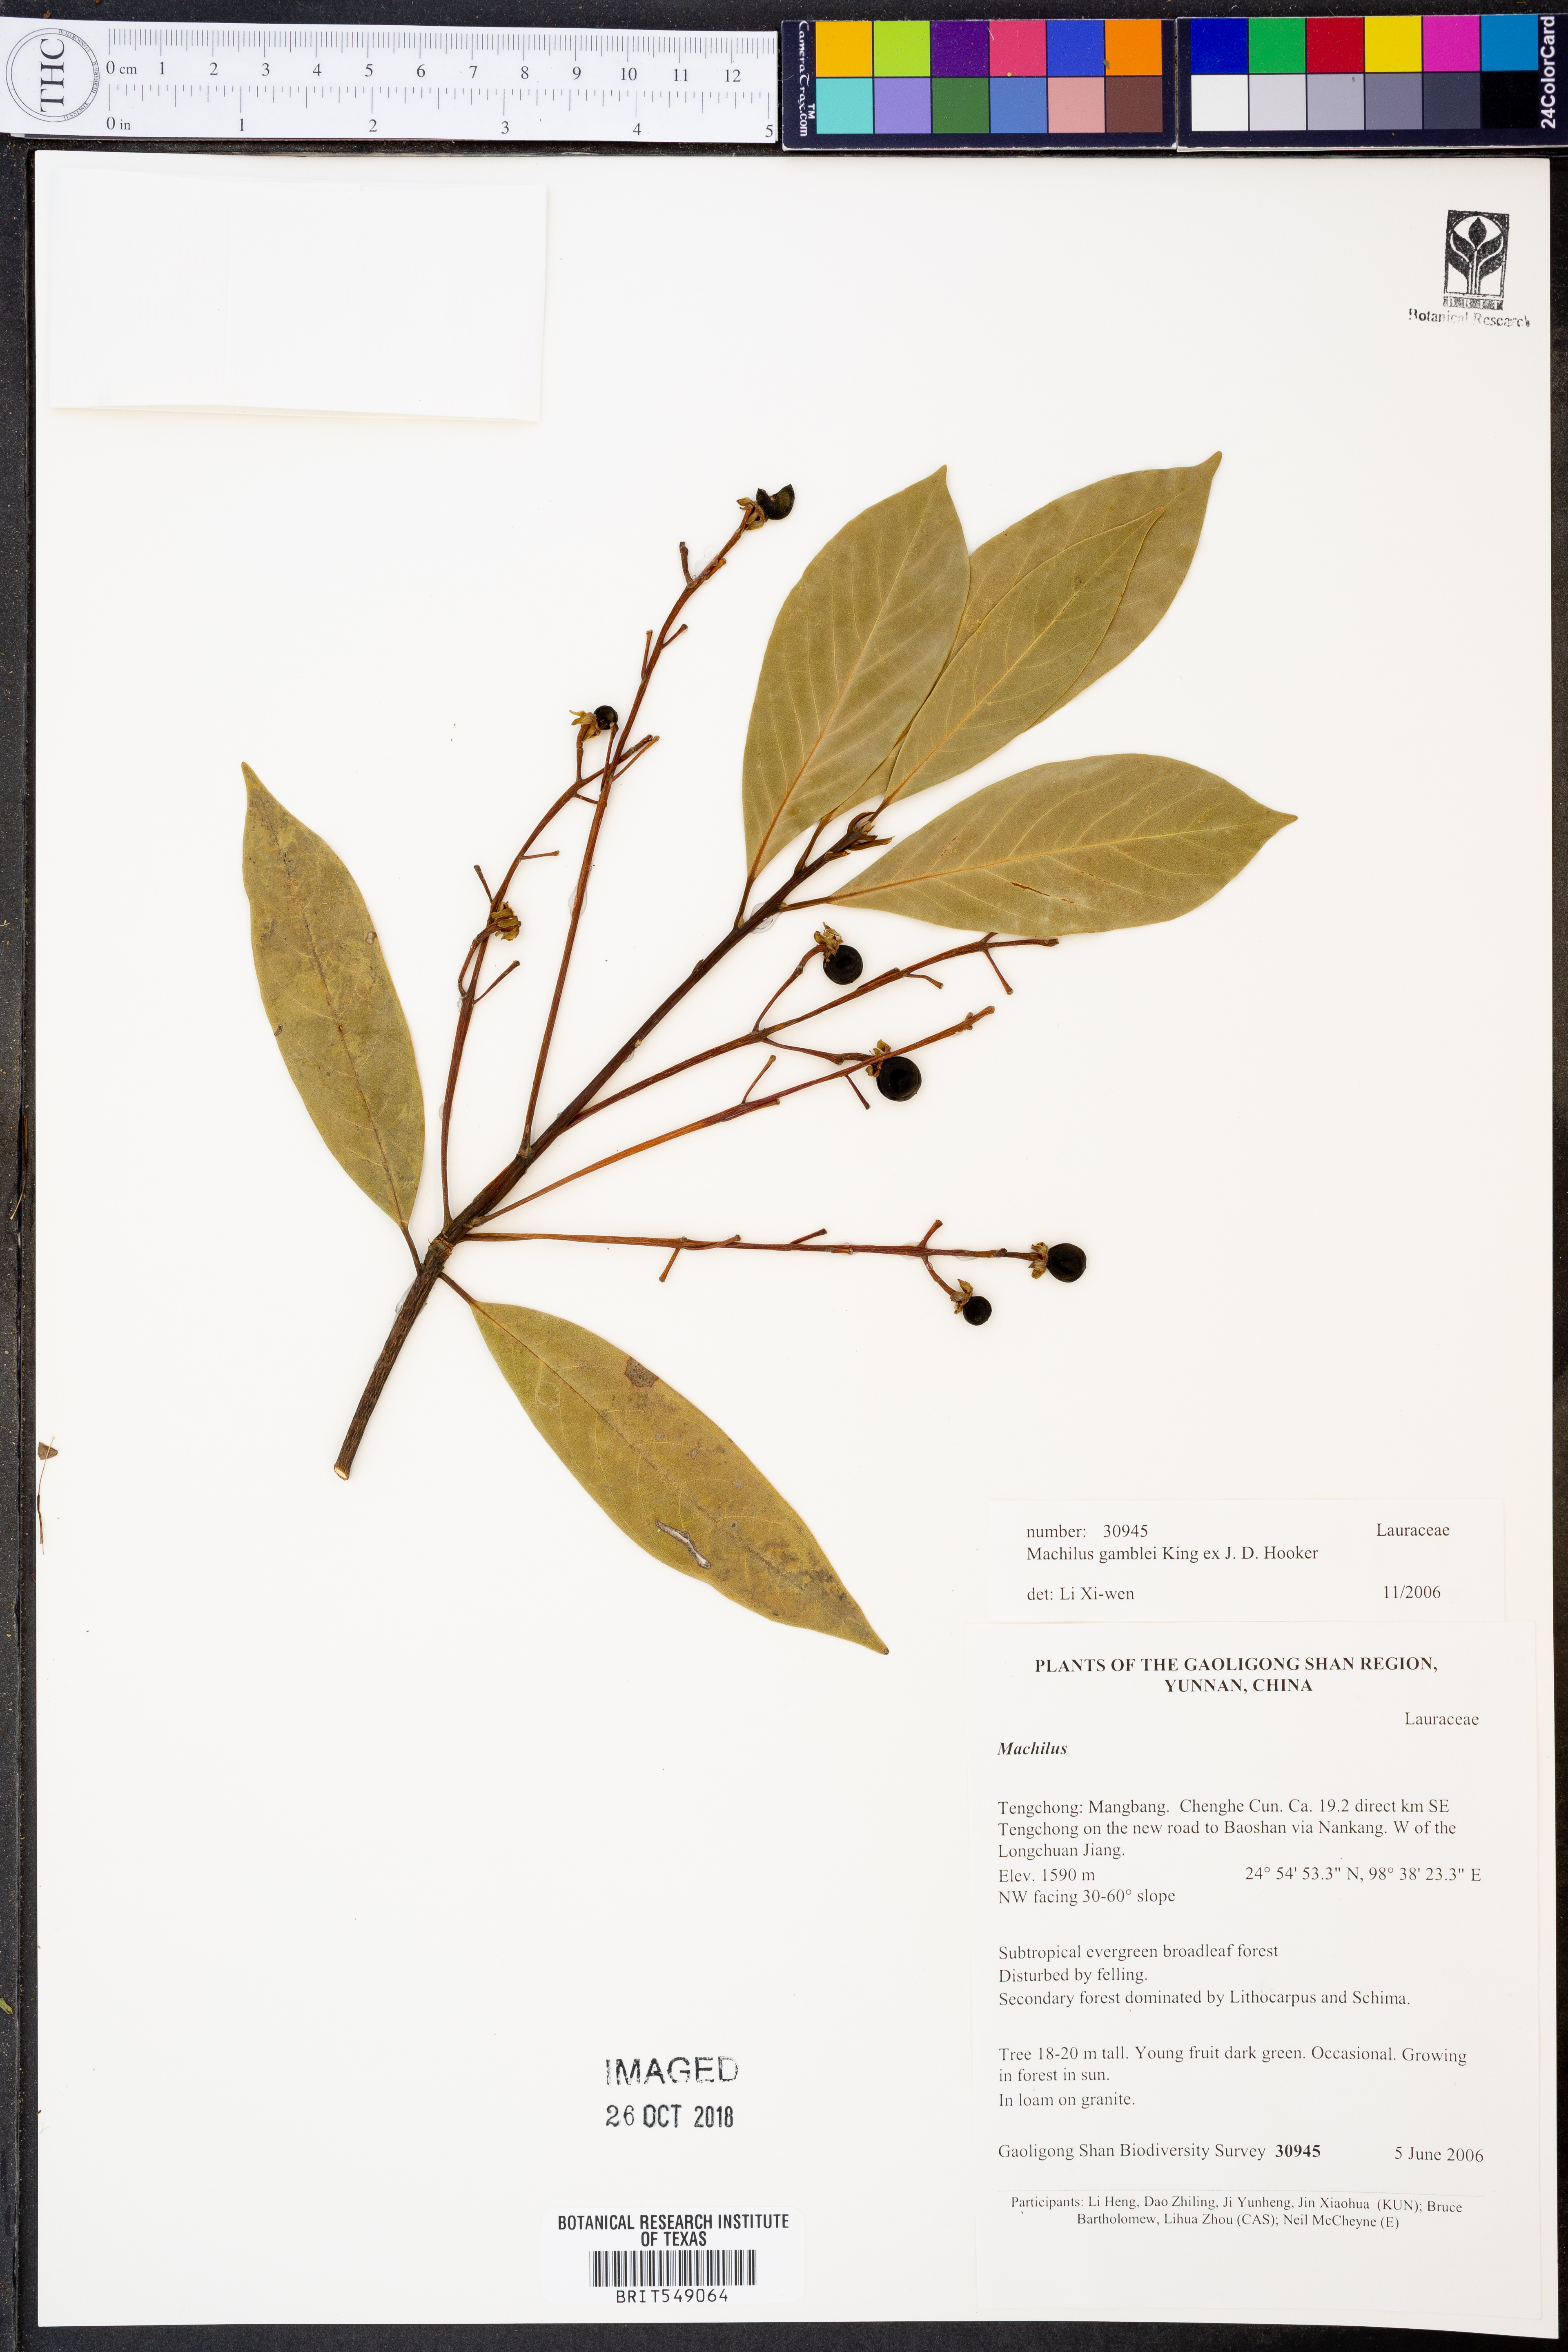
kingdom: Plantae
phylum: Tracheophyta
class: Magnoliopsida
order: Laurales
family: Lauraceae
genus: Machilus
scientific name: Machilus gamblei
